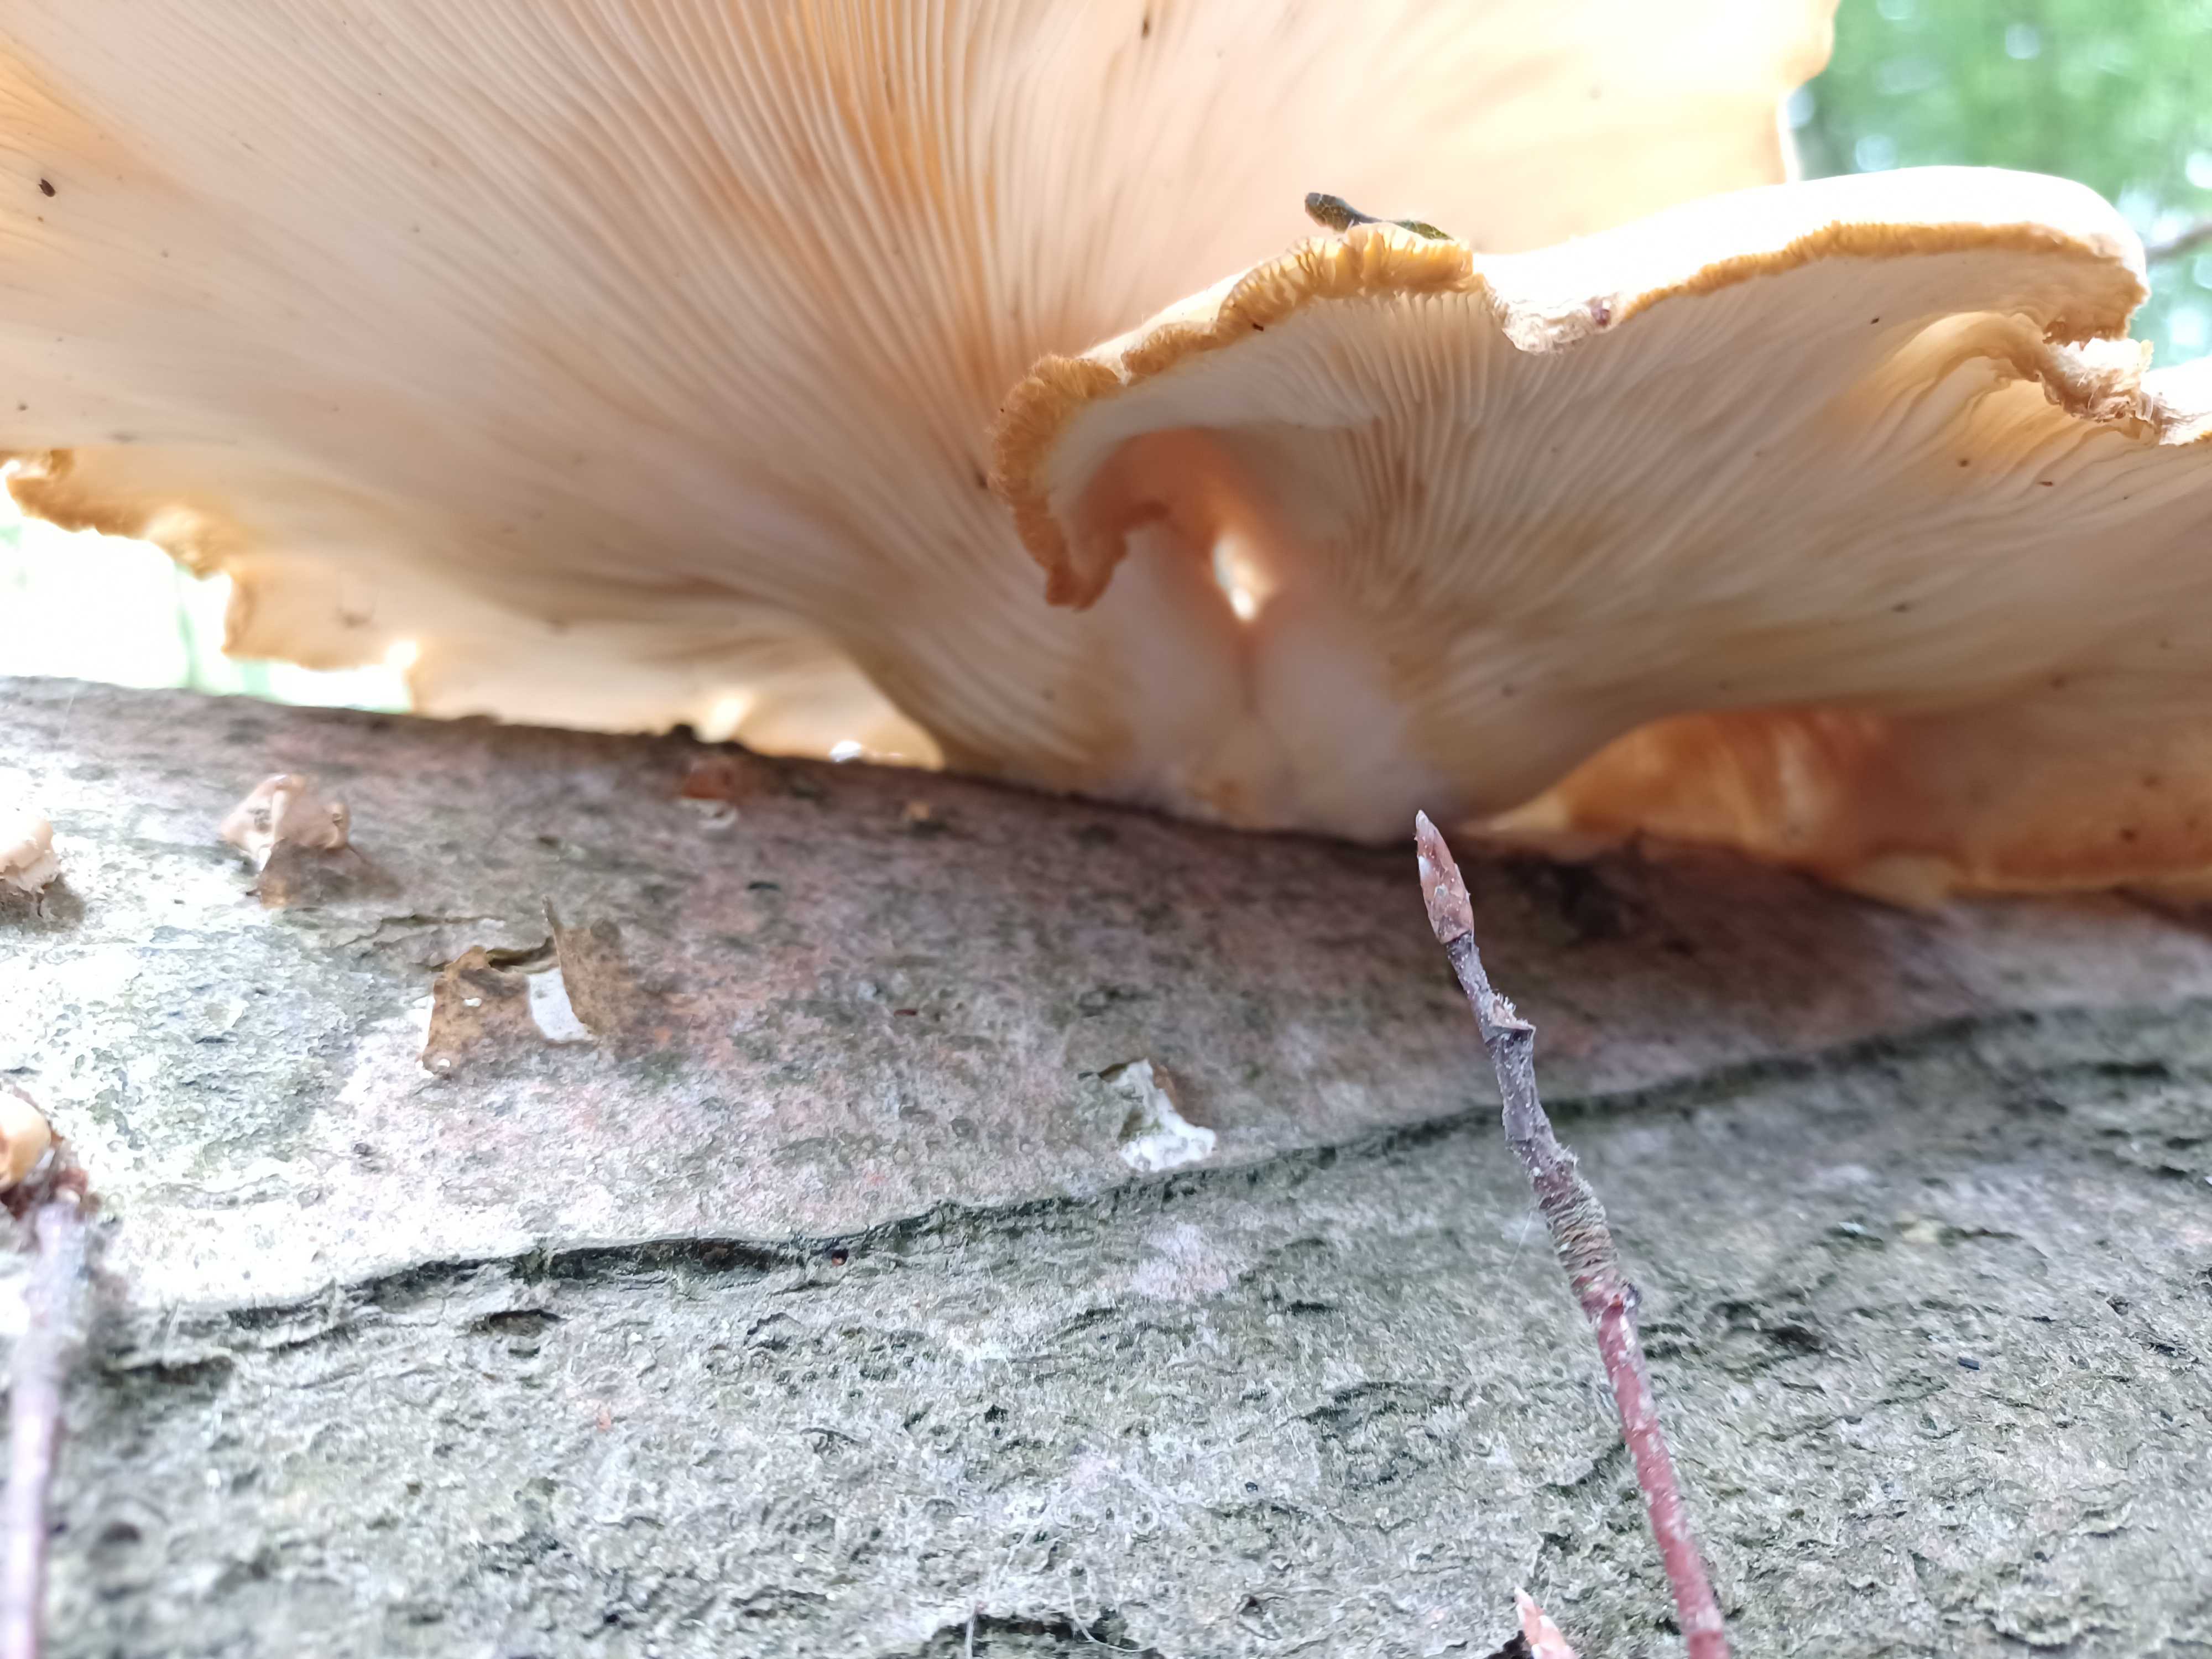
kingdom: Fungi
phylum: Basidiomycota
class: Agaricomycetes
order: Agaricales
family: Pleurotaceae
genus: Pleurotus
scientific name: Pleurotus pulmonarius
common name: sommer-østershat
